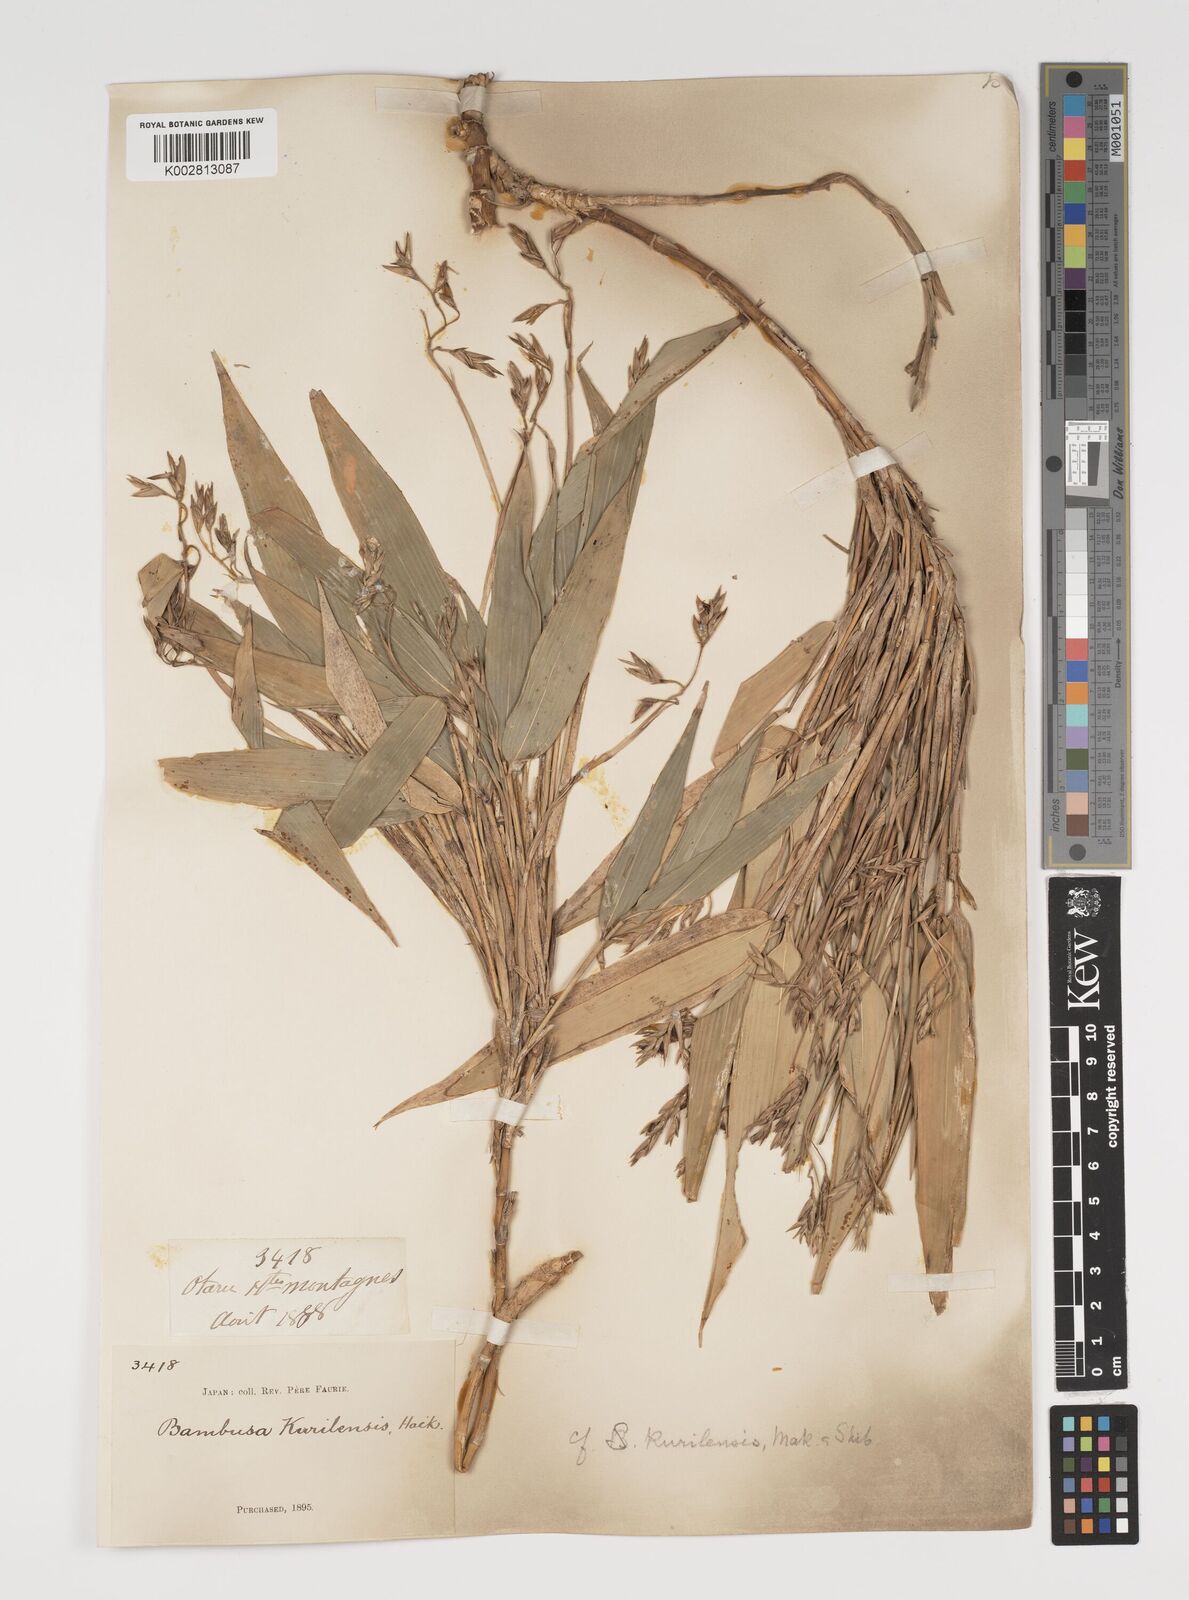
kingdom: Plantae
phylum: Tracheophyta
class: Liliopsida
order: Poales
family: Poaceae
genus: Sasa
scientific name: Sasa kurilensis
